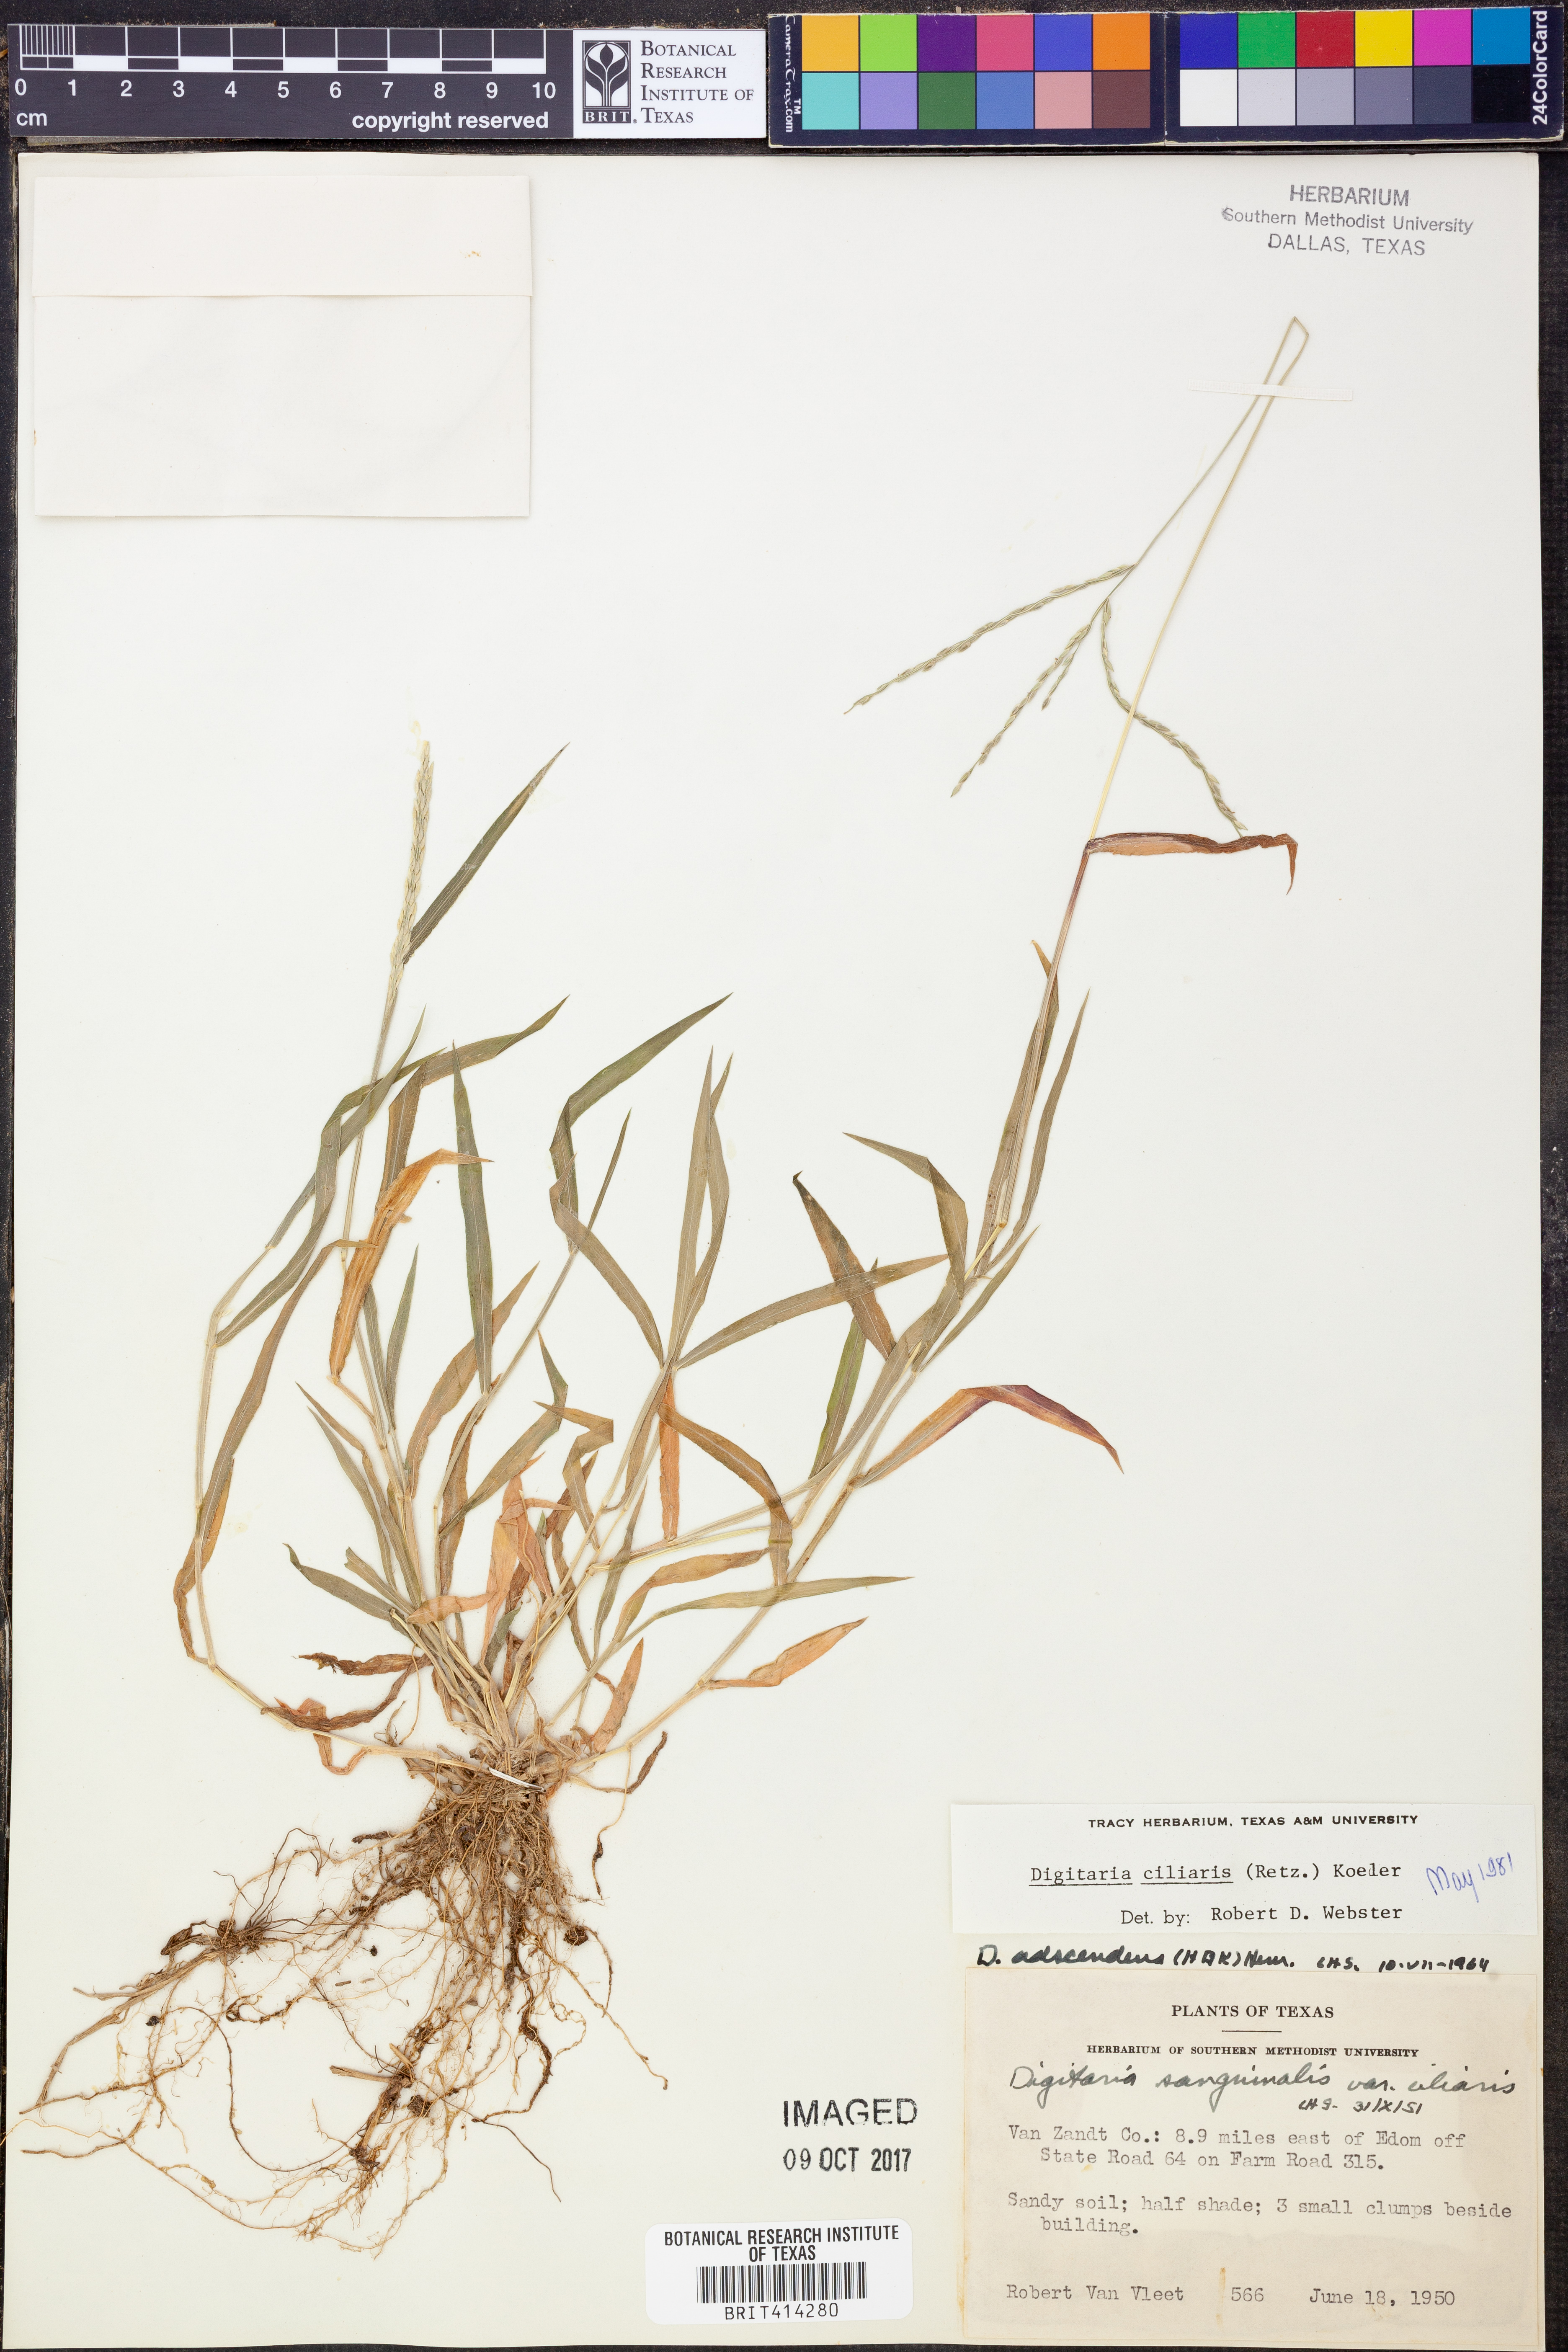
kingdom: Plantae
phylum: Tracheophyta
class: Liliopsida
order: Poales
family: Poaceae
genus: Digitaria
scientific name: Digitaria ciliaris
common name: Tropical finger-grass
